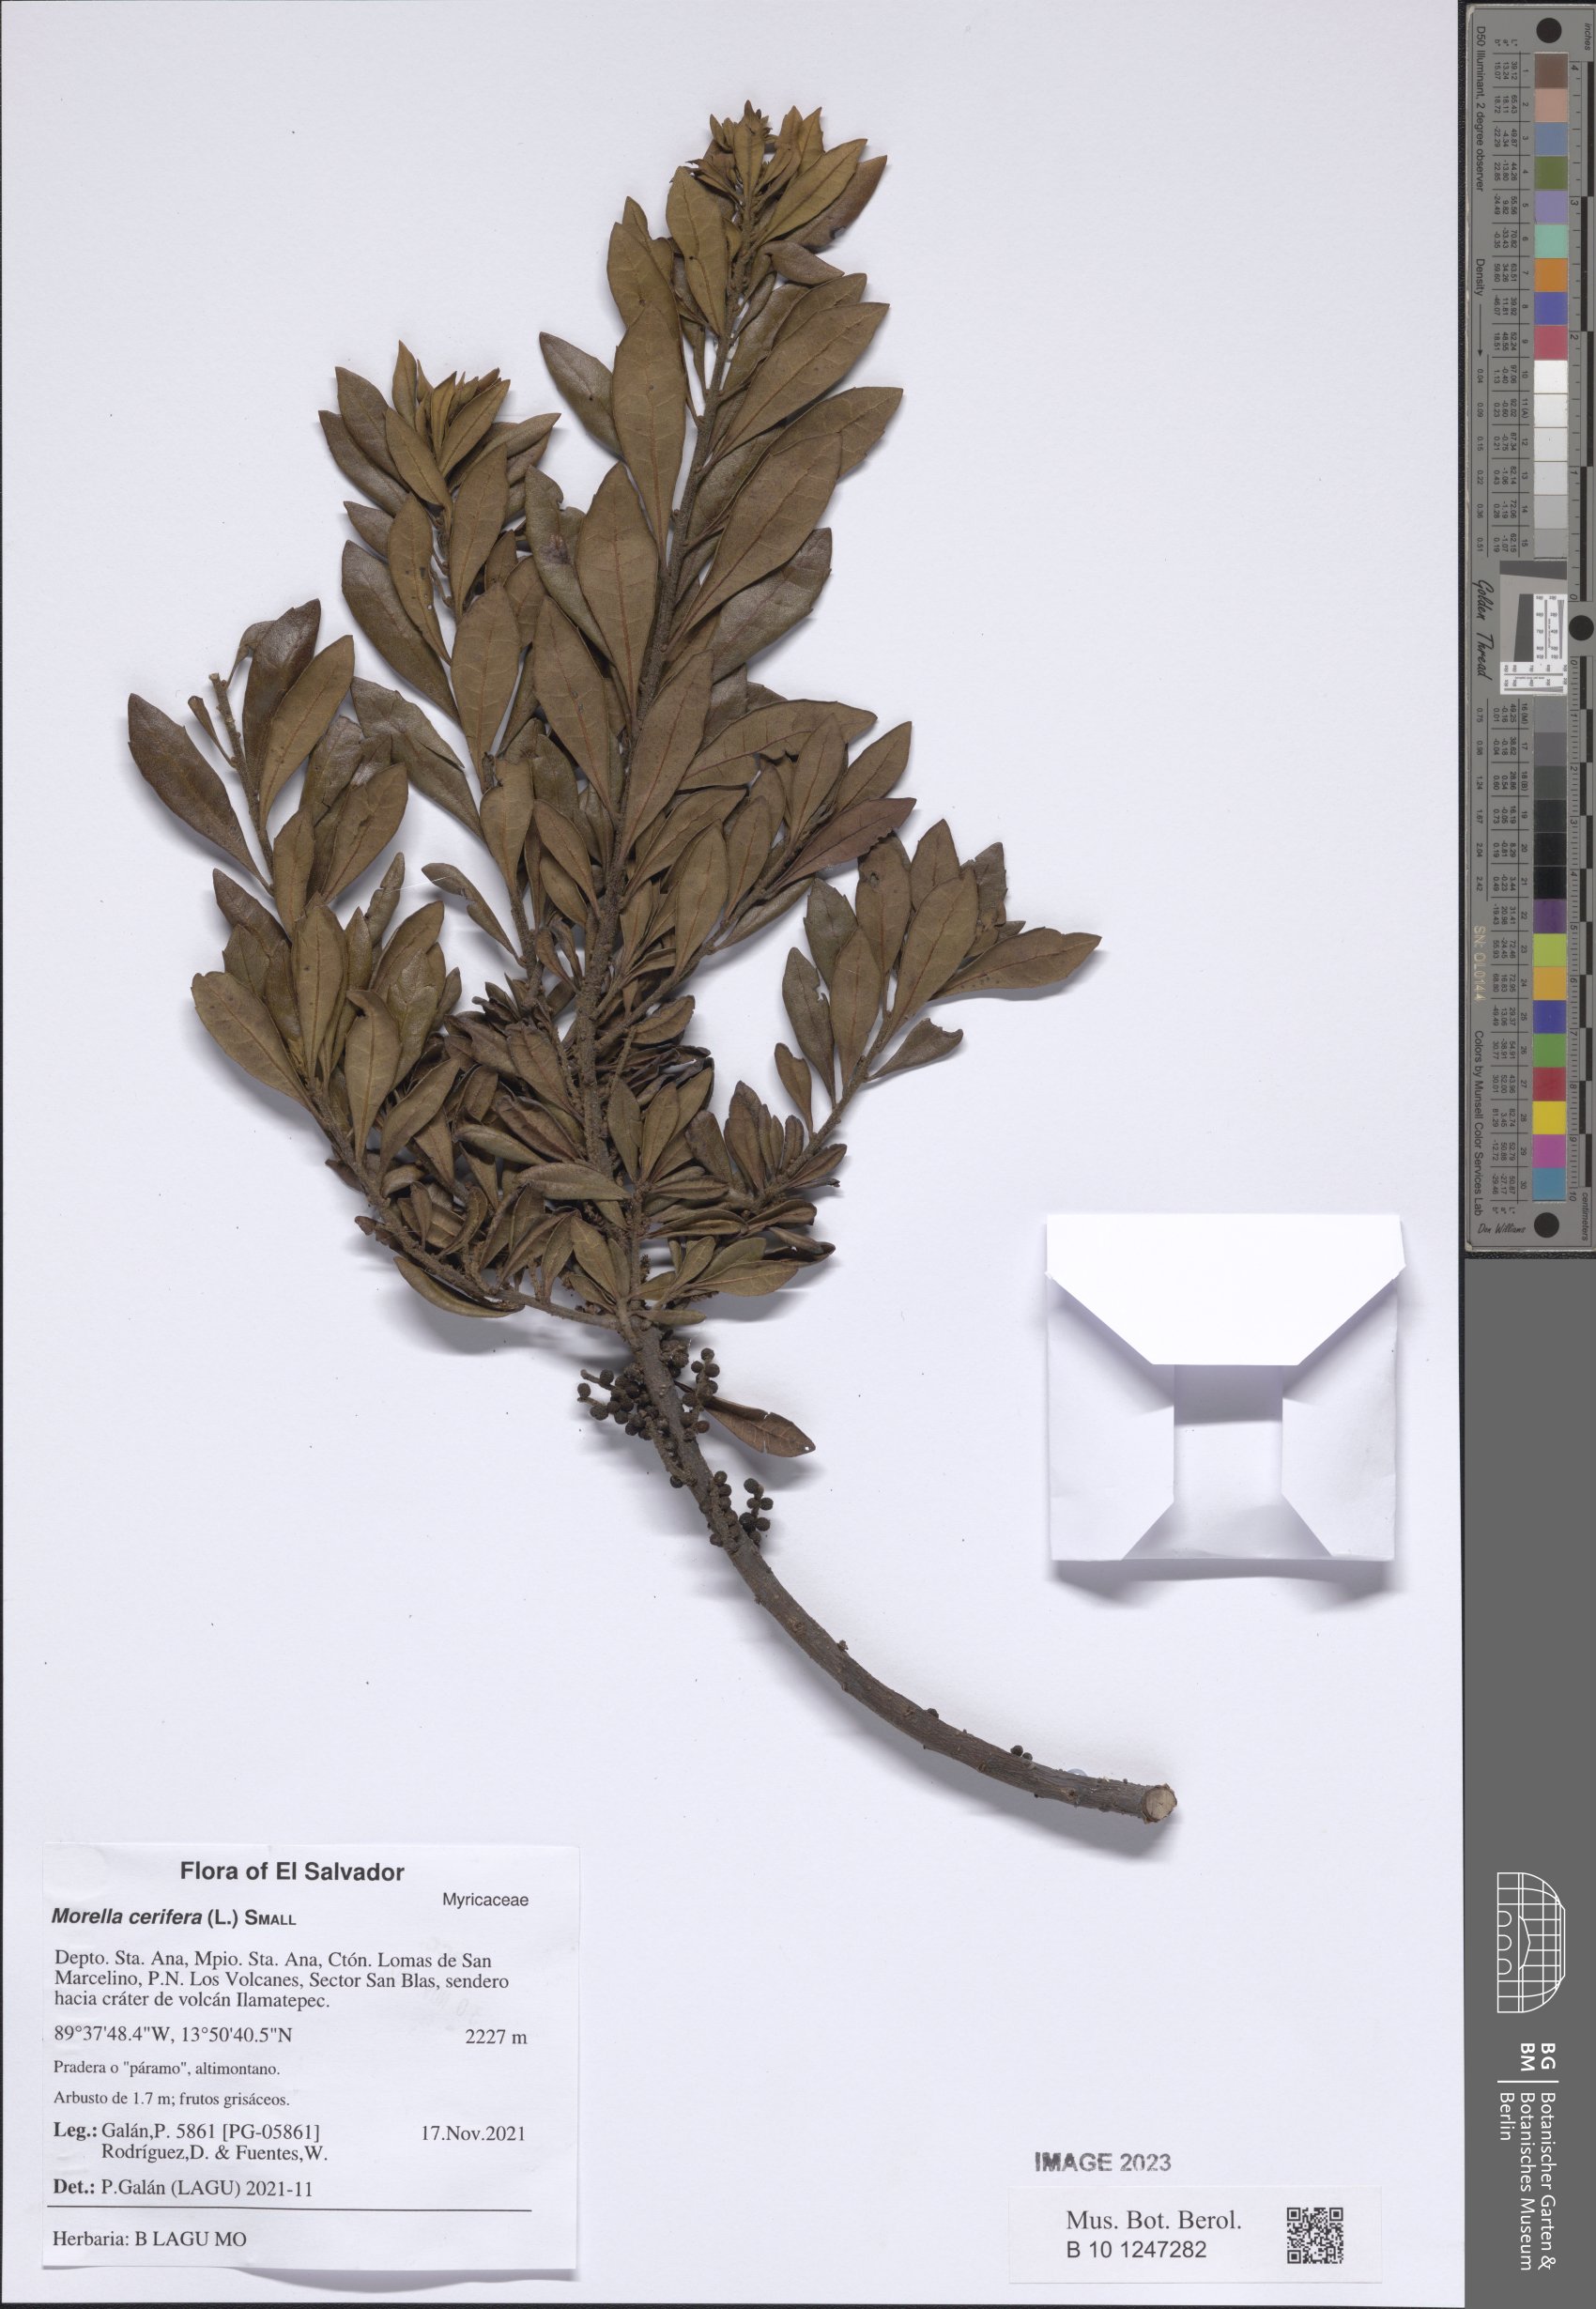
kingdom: Plantae
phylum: Tracheophyta
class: Magnoliopsida
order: Fagales
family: Myricaceae
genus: Morella
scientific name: Morella cerifera
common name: Wax myrtle
